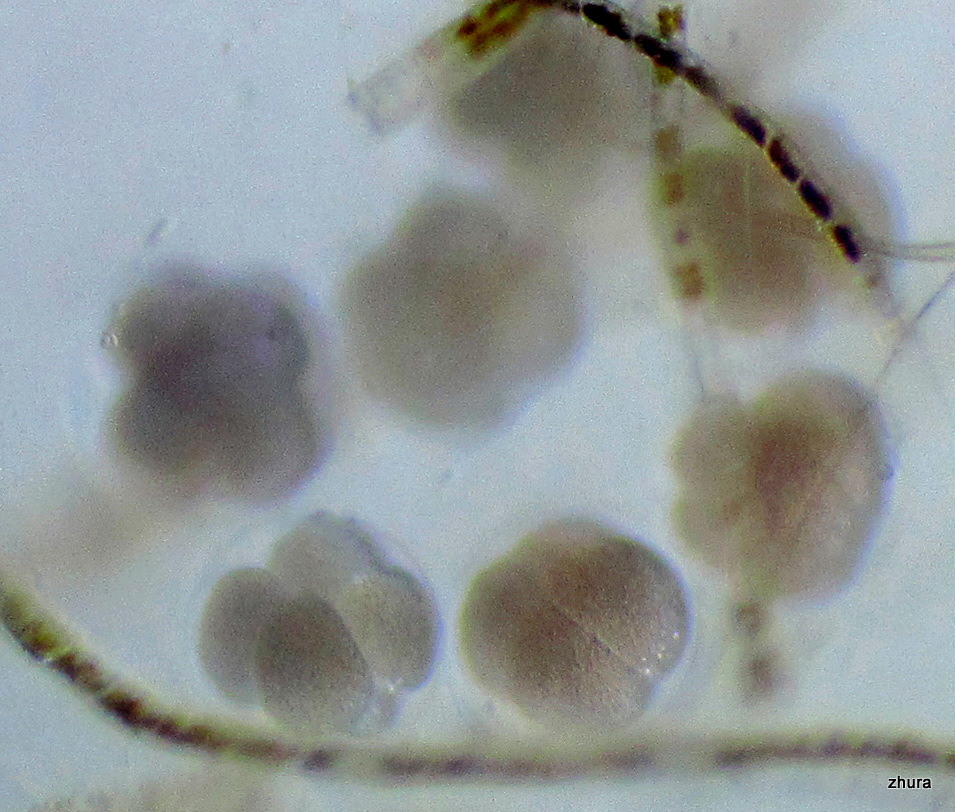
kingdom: Animalia
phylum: Mollusca
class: Gastropoda
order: Littorinimorpha
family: Littorinidae
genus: Littorina
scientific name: Littorina
